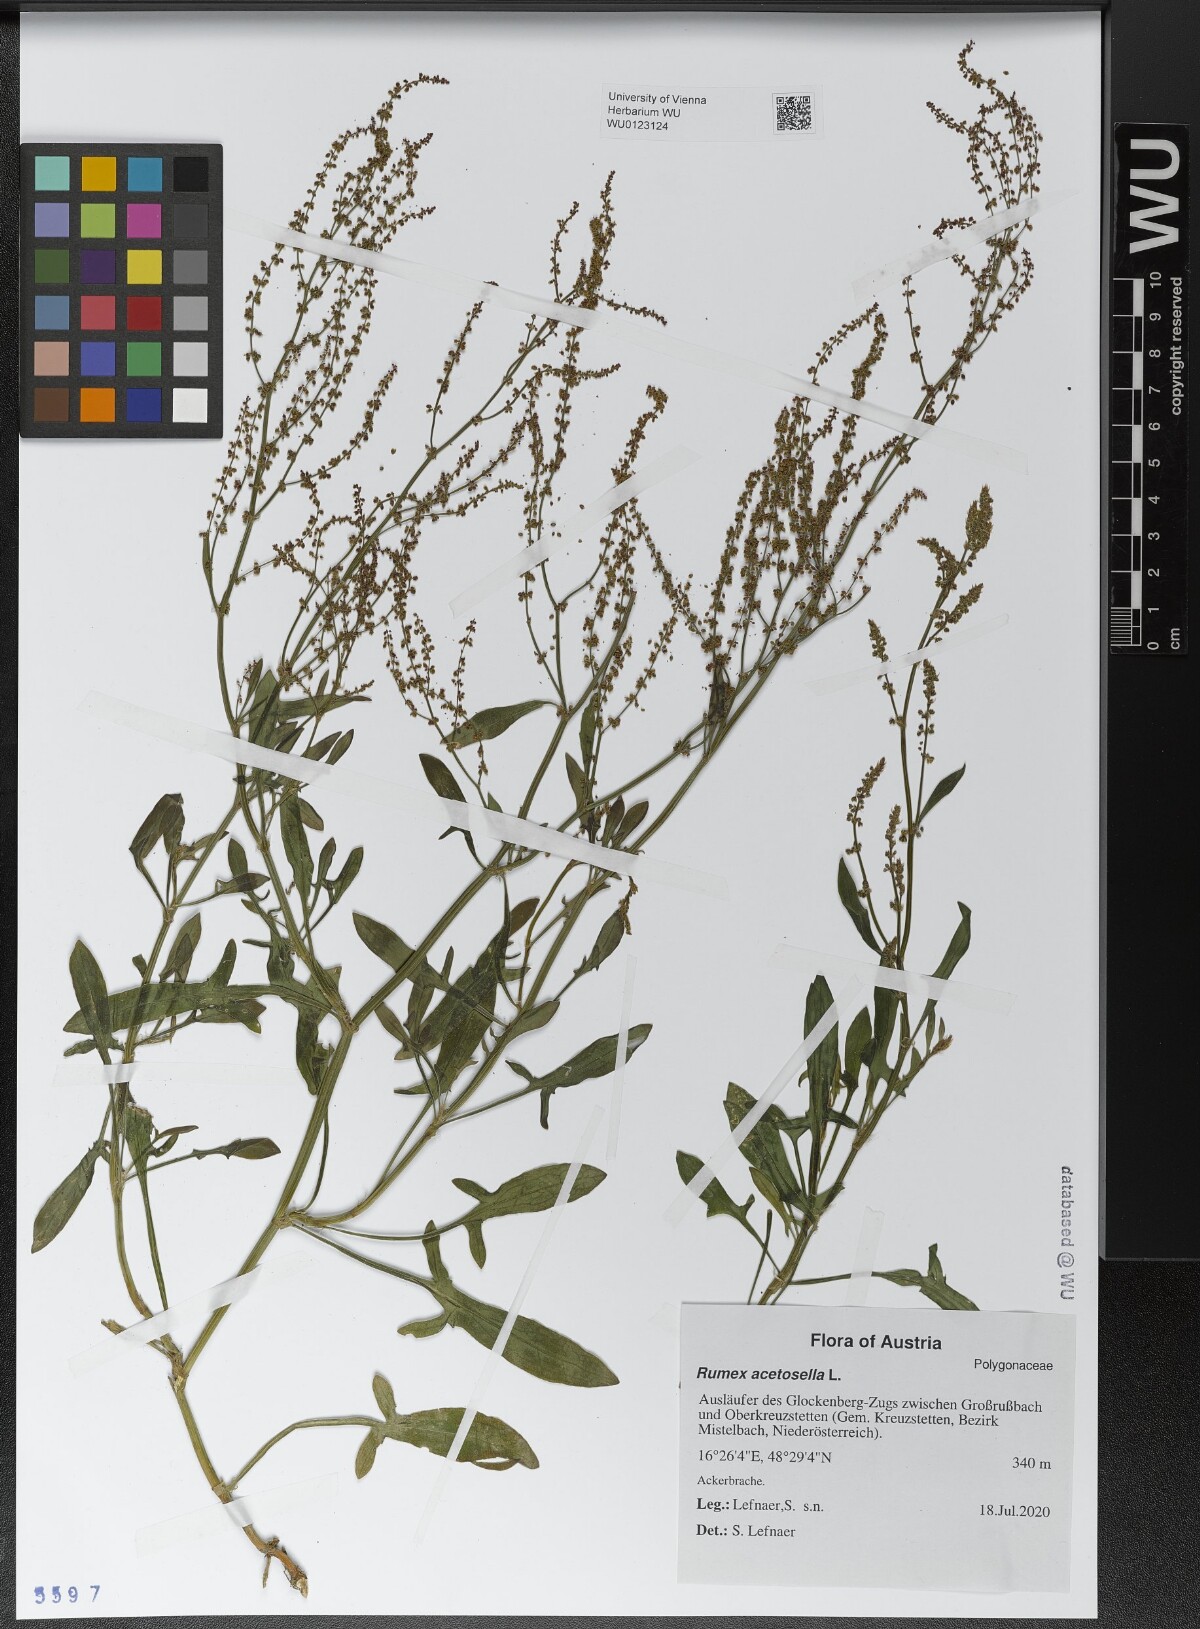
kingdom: Plantae
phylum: Tracheophyta
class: Magnoliopsida
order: Caryophyllales
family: Polygonaceae
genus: Rumex
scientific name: Rumex acetosella
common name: Common sheep sorrel
